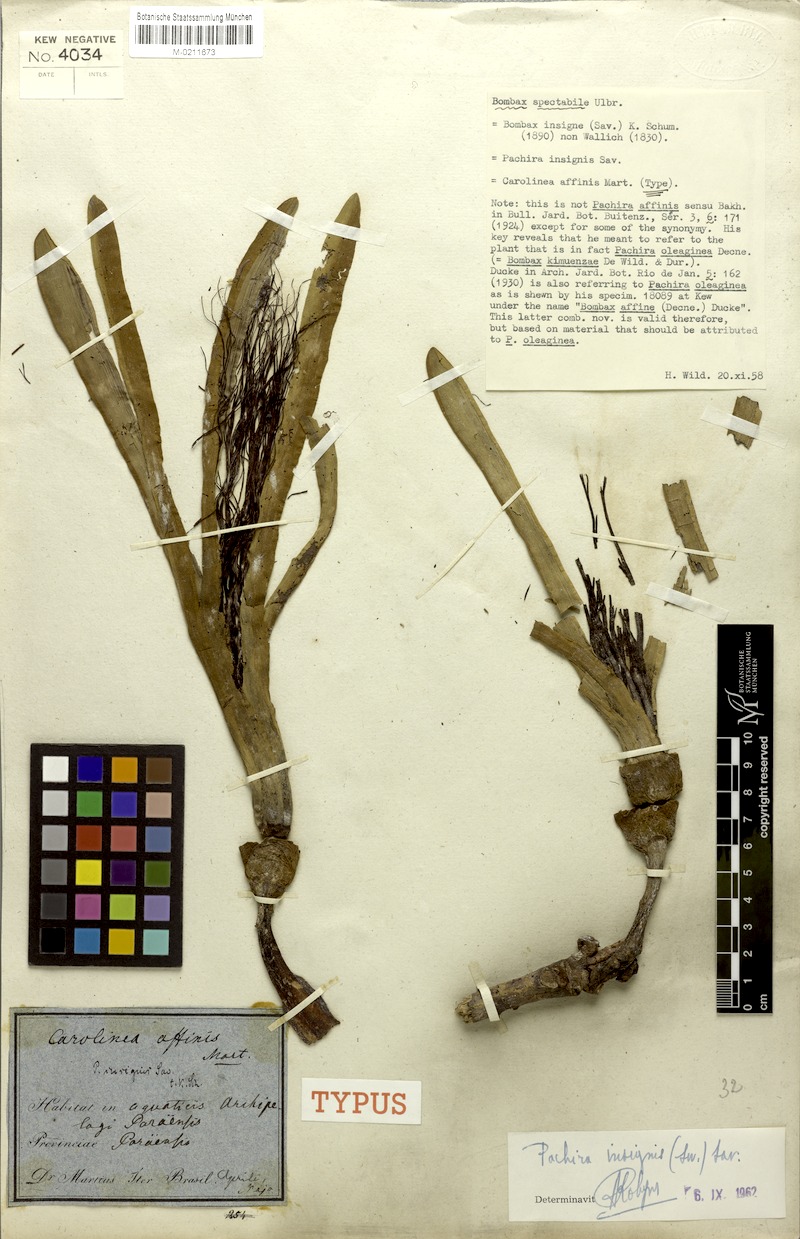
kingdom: Plantae
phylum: Tracheophyta
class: Magnoliopsida
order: Malvales
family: Malvaceae
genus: Pachira
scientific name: Pachira insignis
